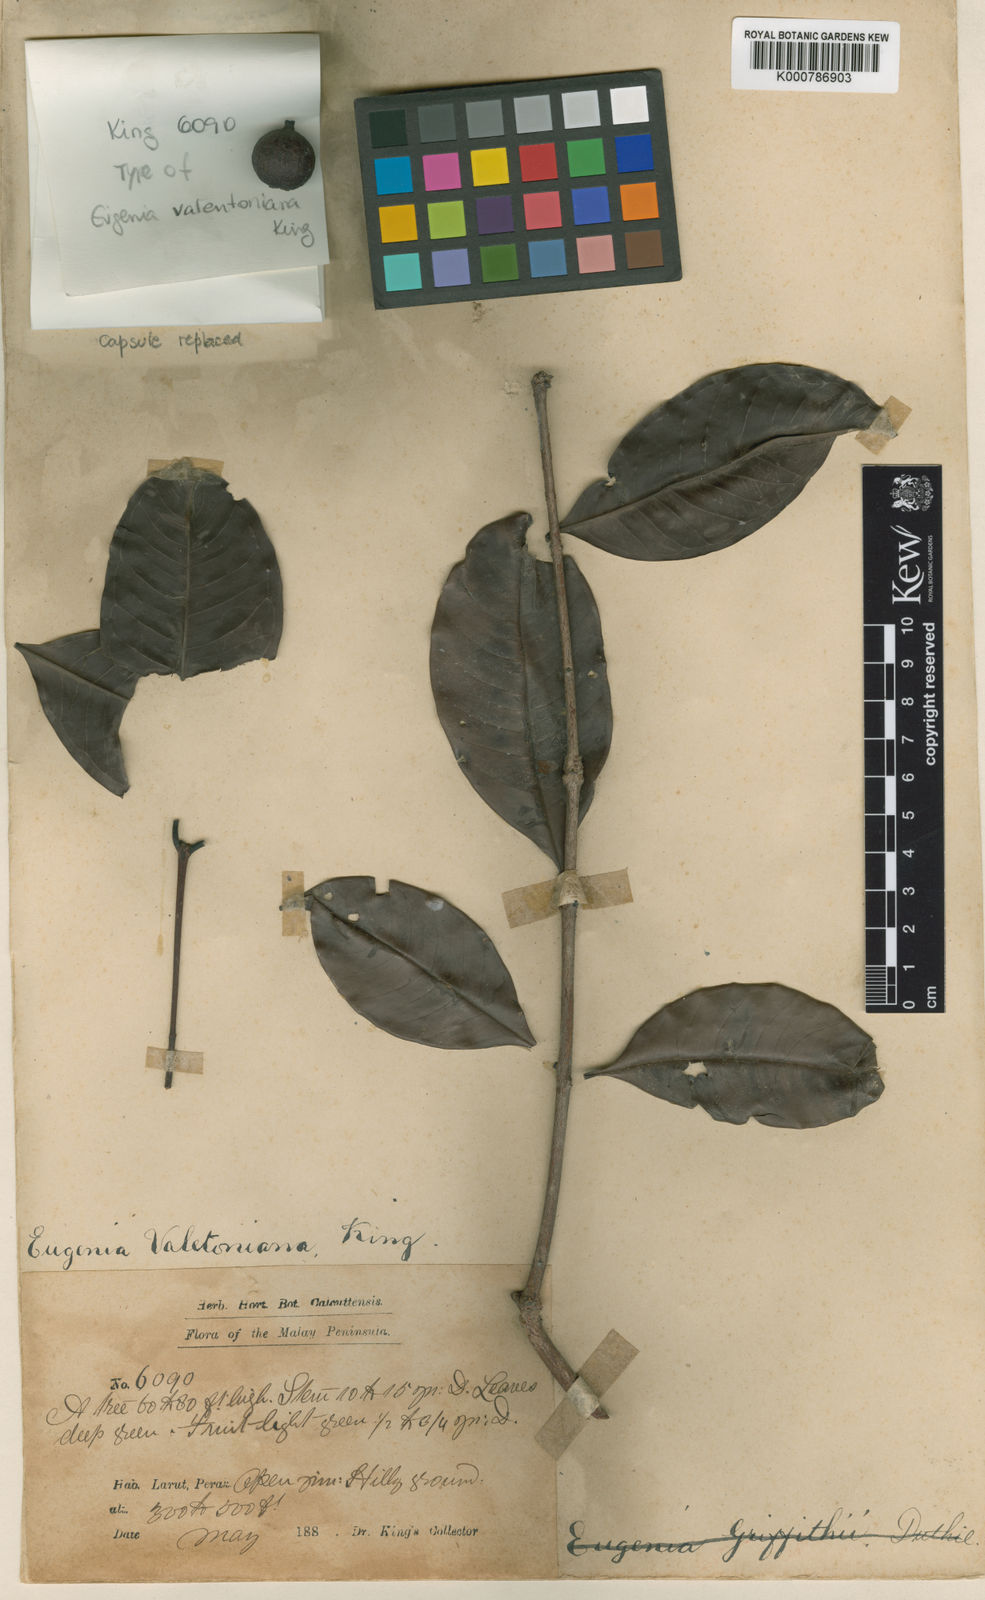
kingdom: Plantae
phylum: Tracheophyta
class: Magnoliopsida
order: Myrtales
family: Myrtaceae
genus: Syzygium
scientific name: Syzygium griffithii
